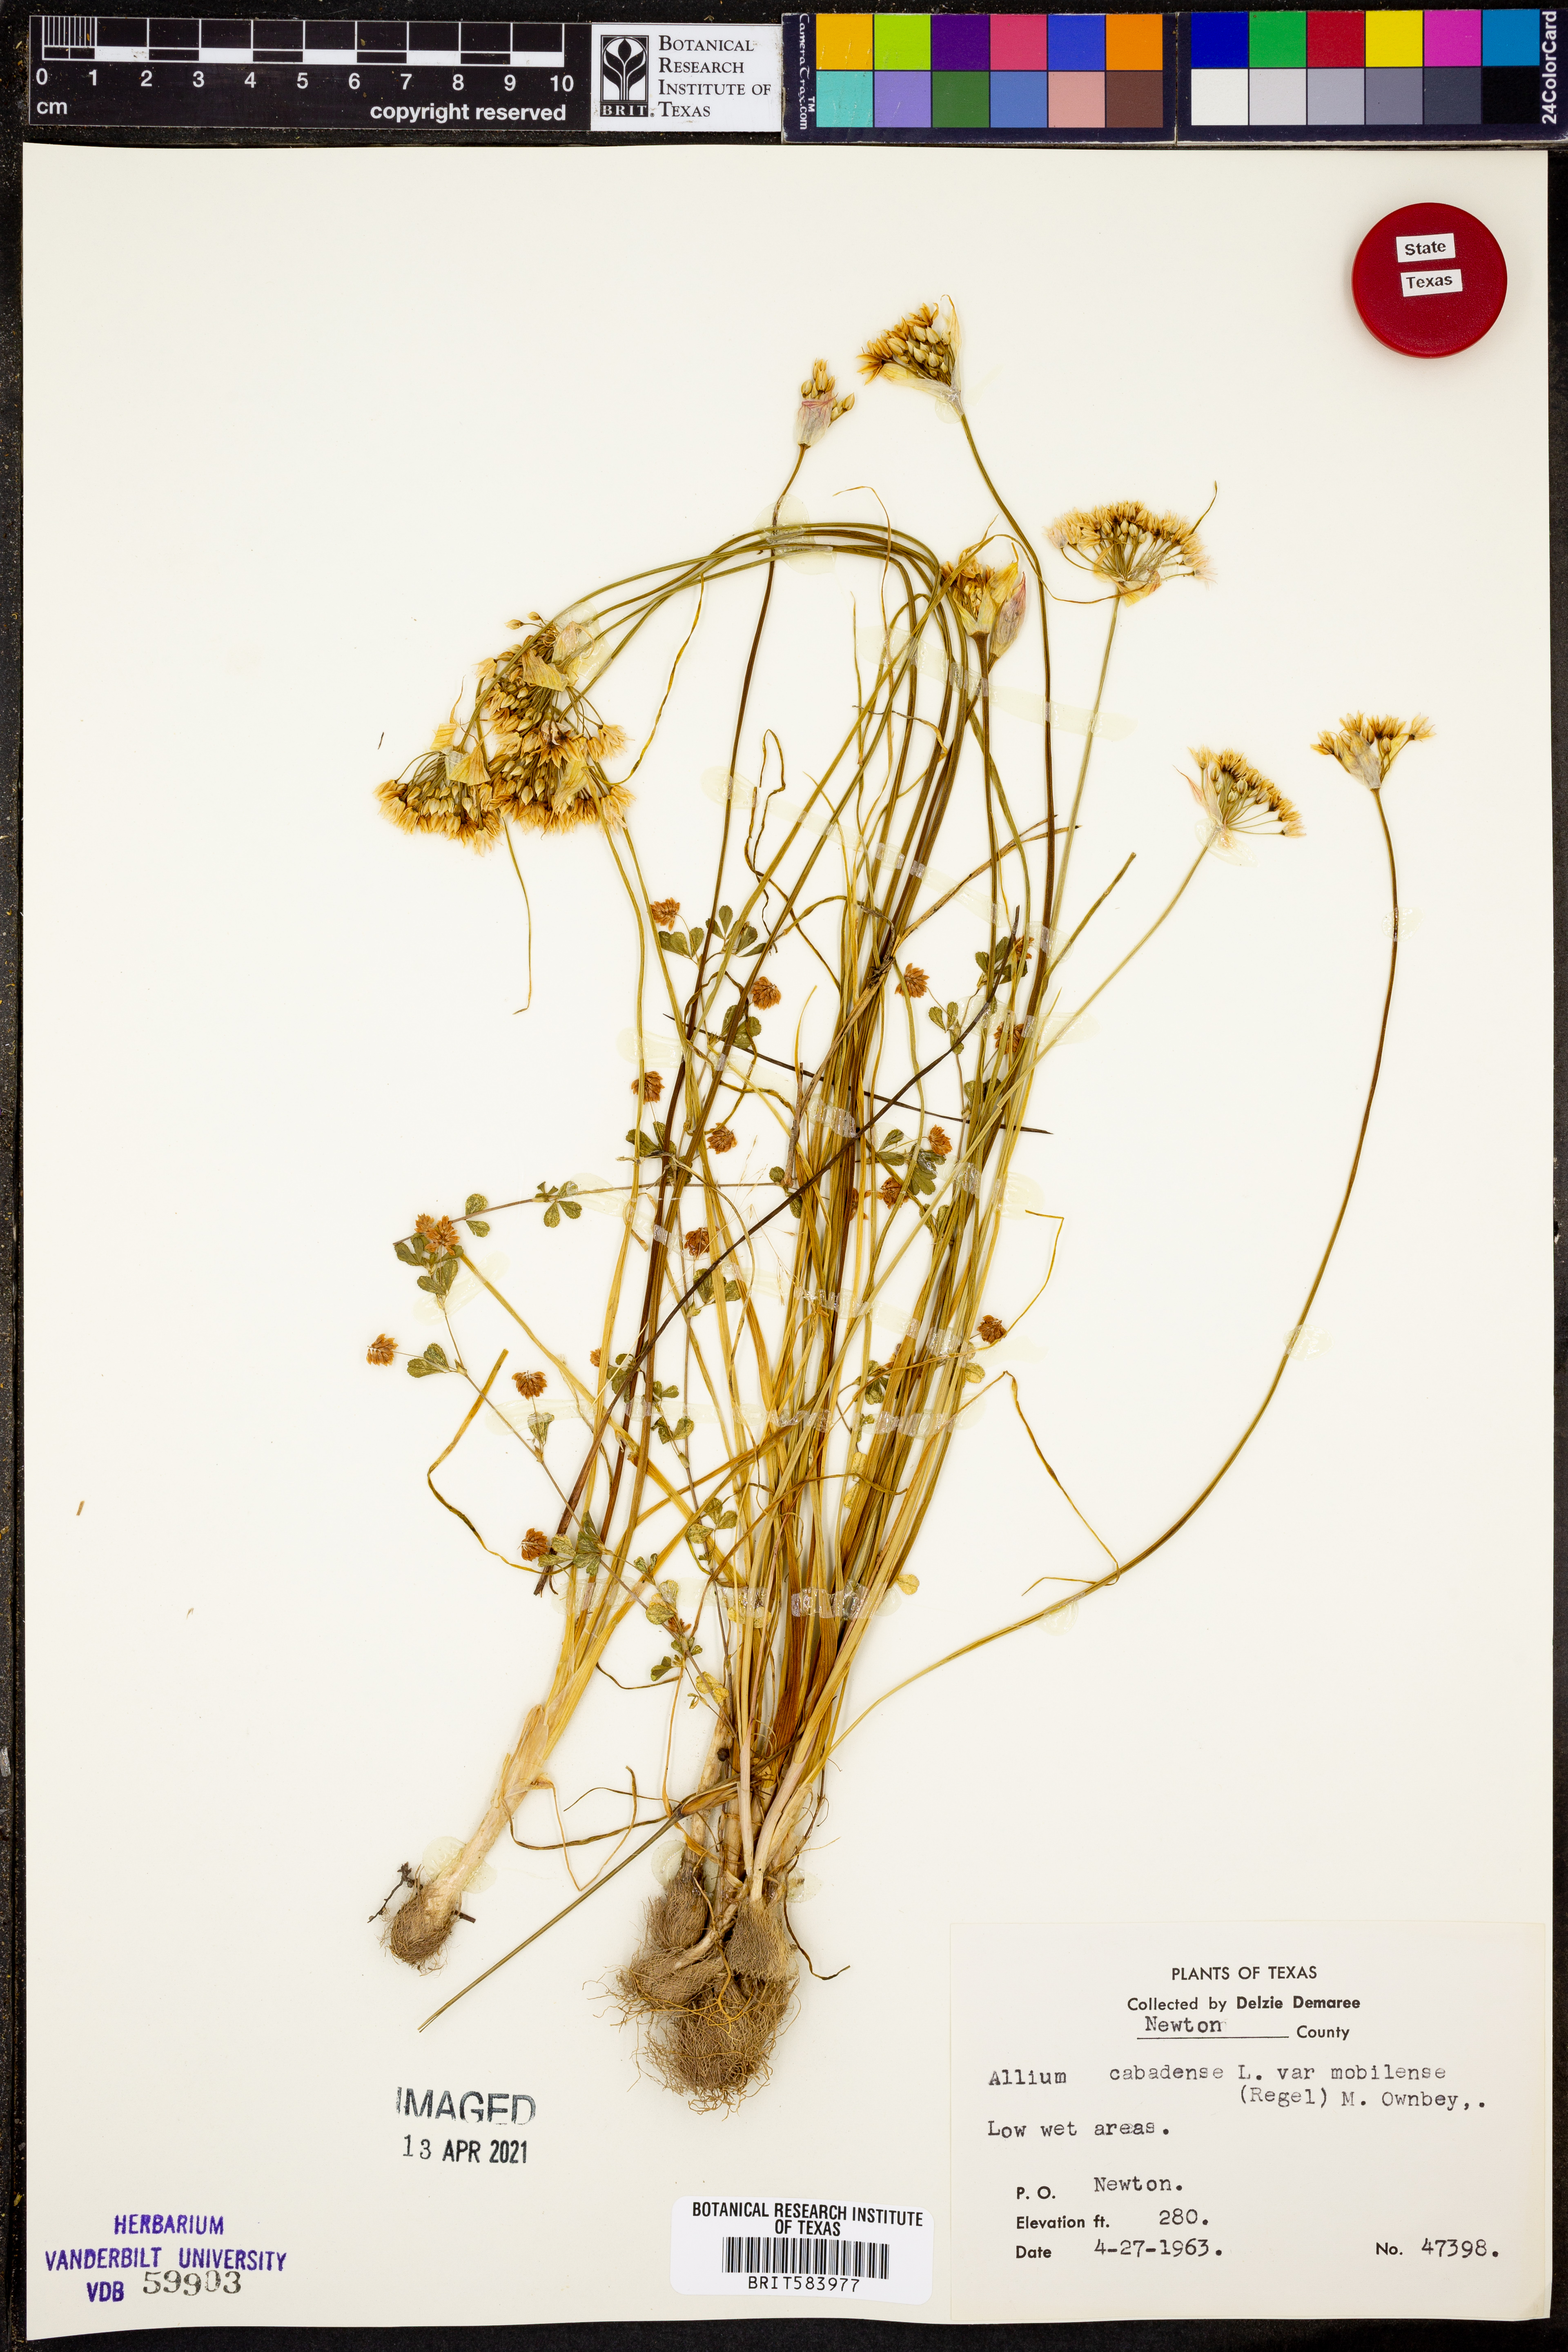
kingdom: Plantae
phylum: Tracheophyta
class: Liliopsida
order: Asparagales
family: Amaryllidaceae
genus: Allium
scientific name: Allium canadense
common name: Meadow garlic
